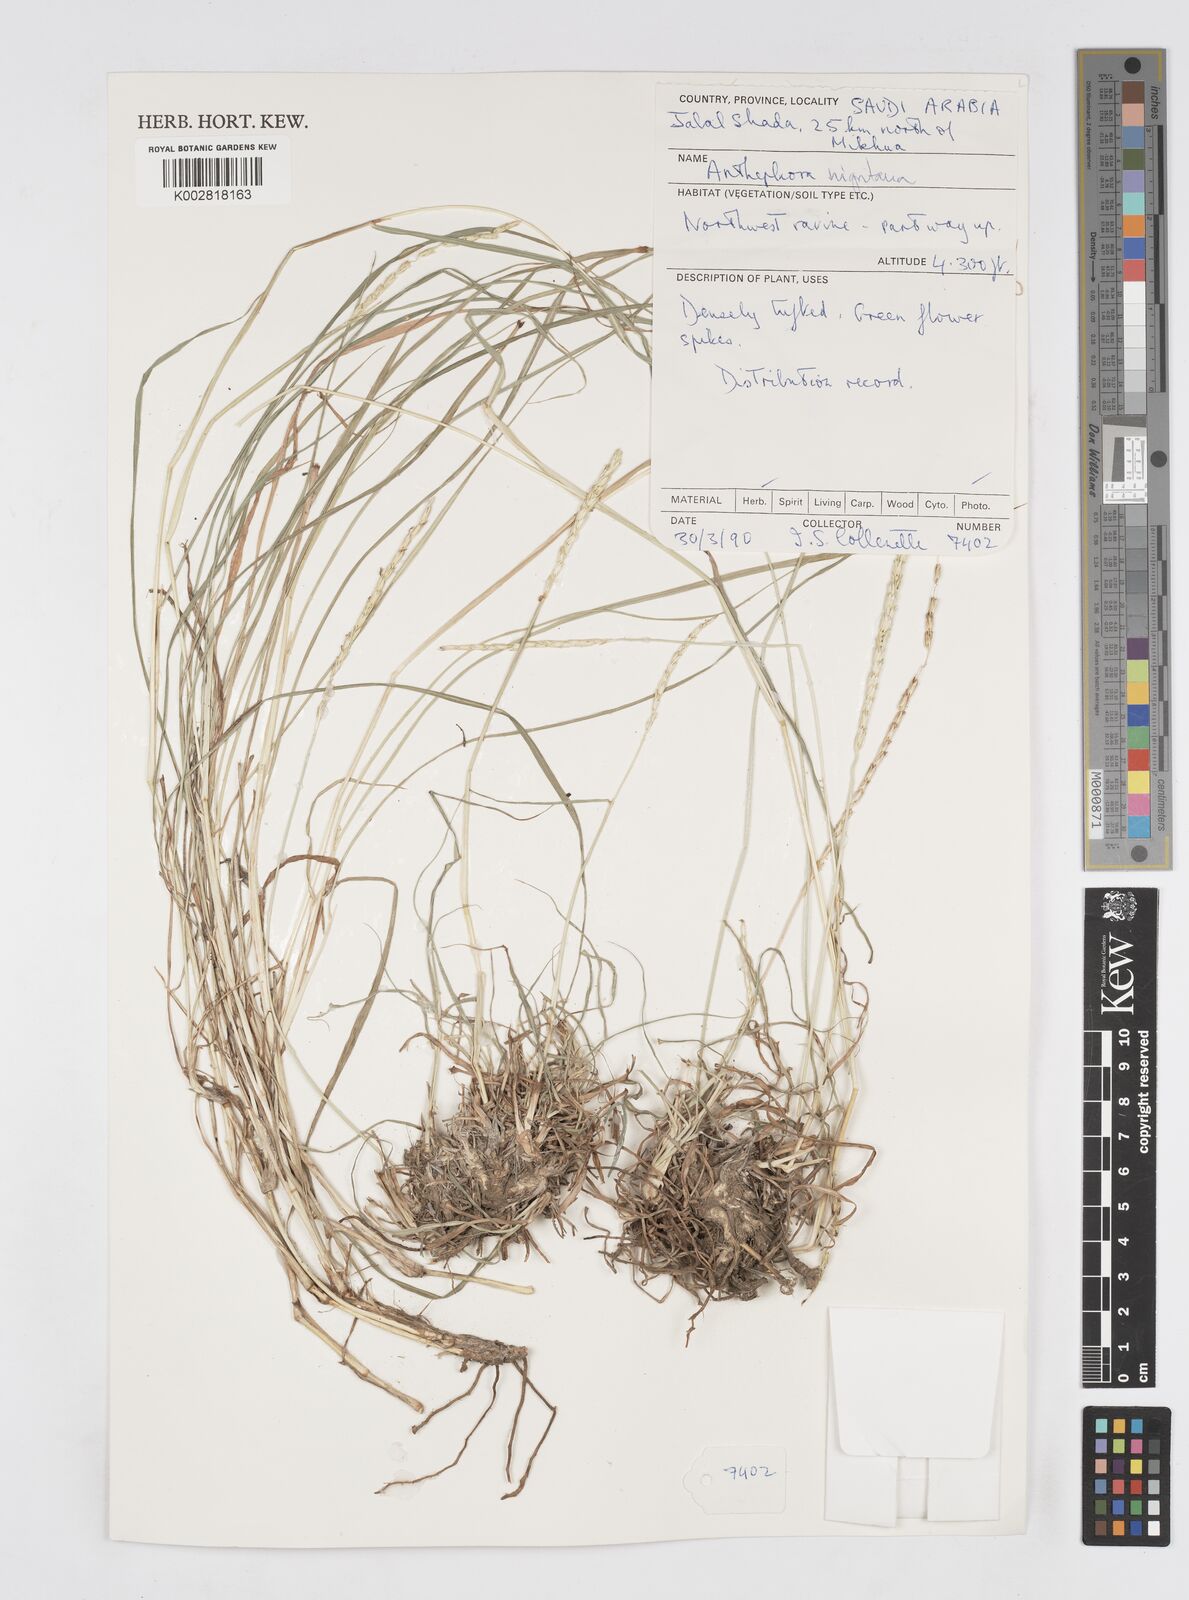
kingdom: Plantae
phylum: Tracheophyta
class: Liliopsida
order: Poales
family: Poaceae
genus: Anthephora
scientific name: Anthephora nigritana
